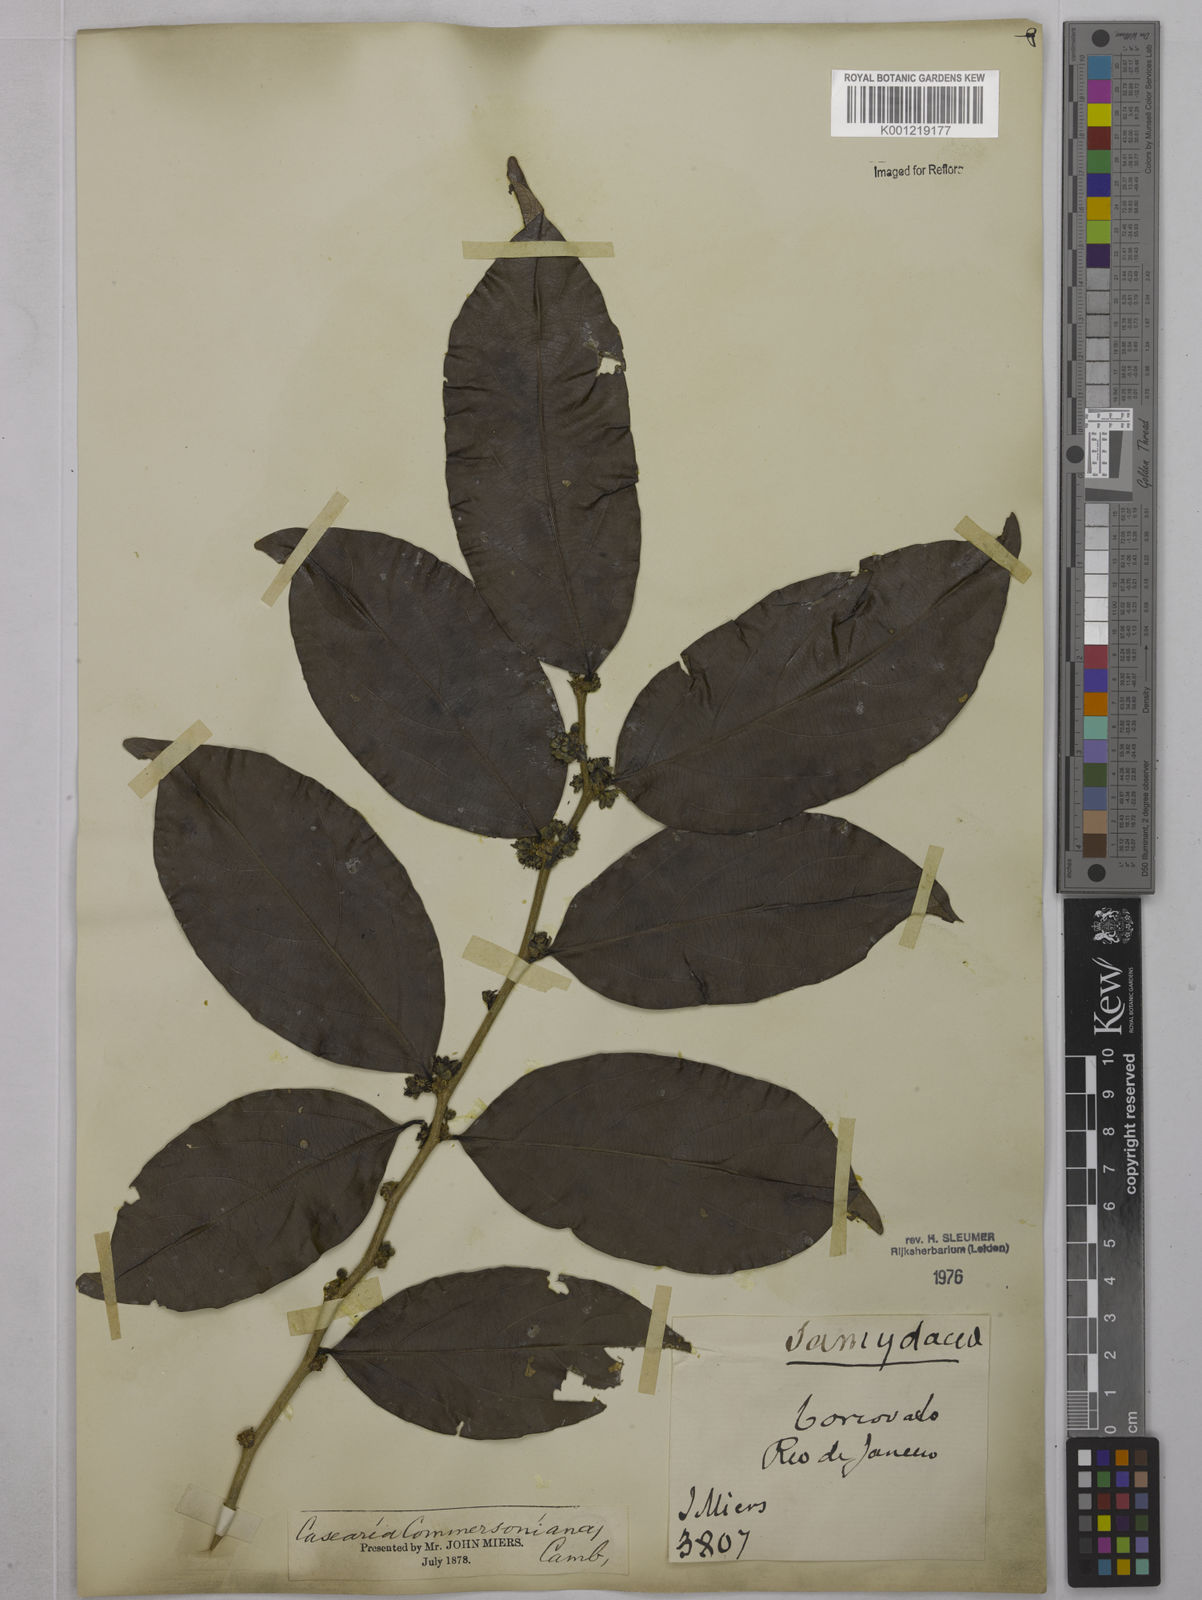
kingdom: Plantae
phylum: Tracheophyta
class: Magnoliopsida
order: Malpighiales
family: Salicaceae
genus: Piparea
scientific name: Piparea dentata
